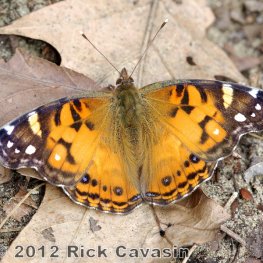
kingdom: Animalia
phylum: Arthropoda
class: Insecta
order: Lepidoptera
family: Nymphalidae
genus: Vanessa
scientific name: Vanessa virginiensis
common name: American Lady
